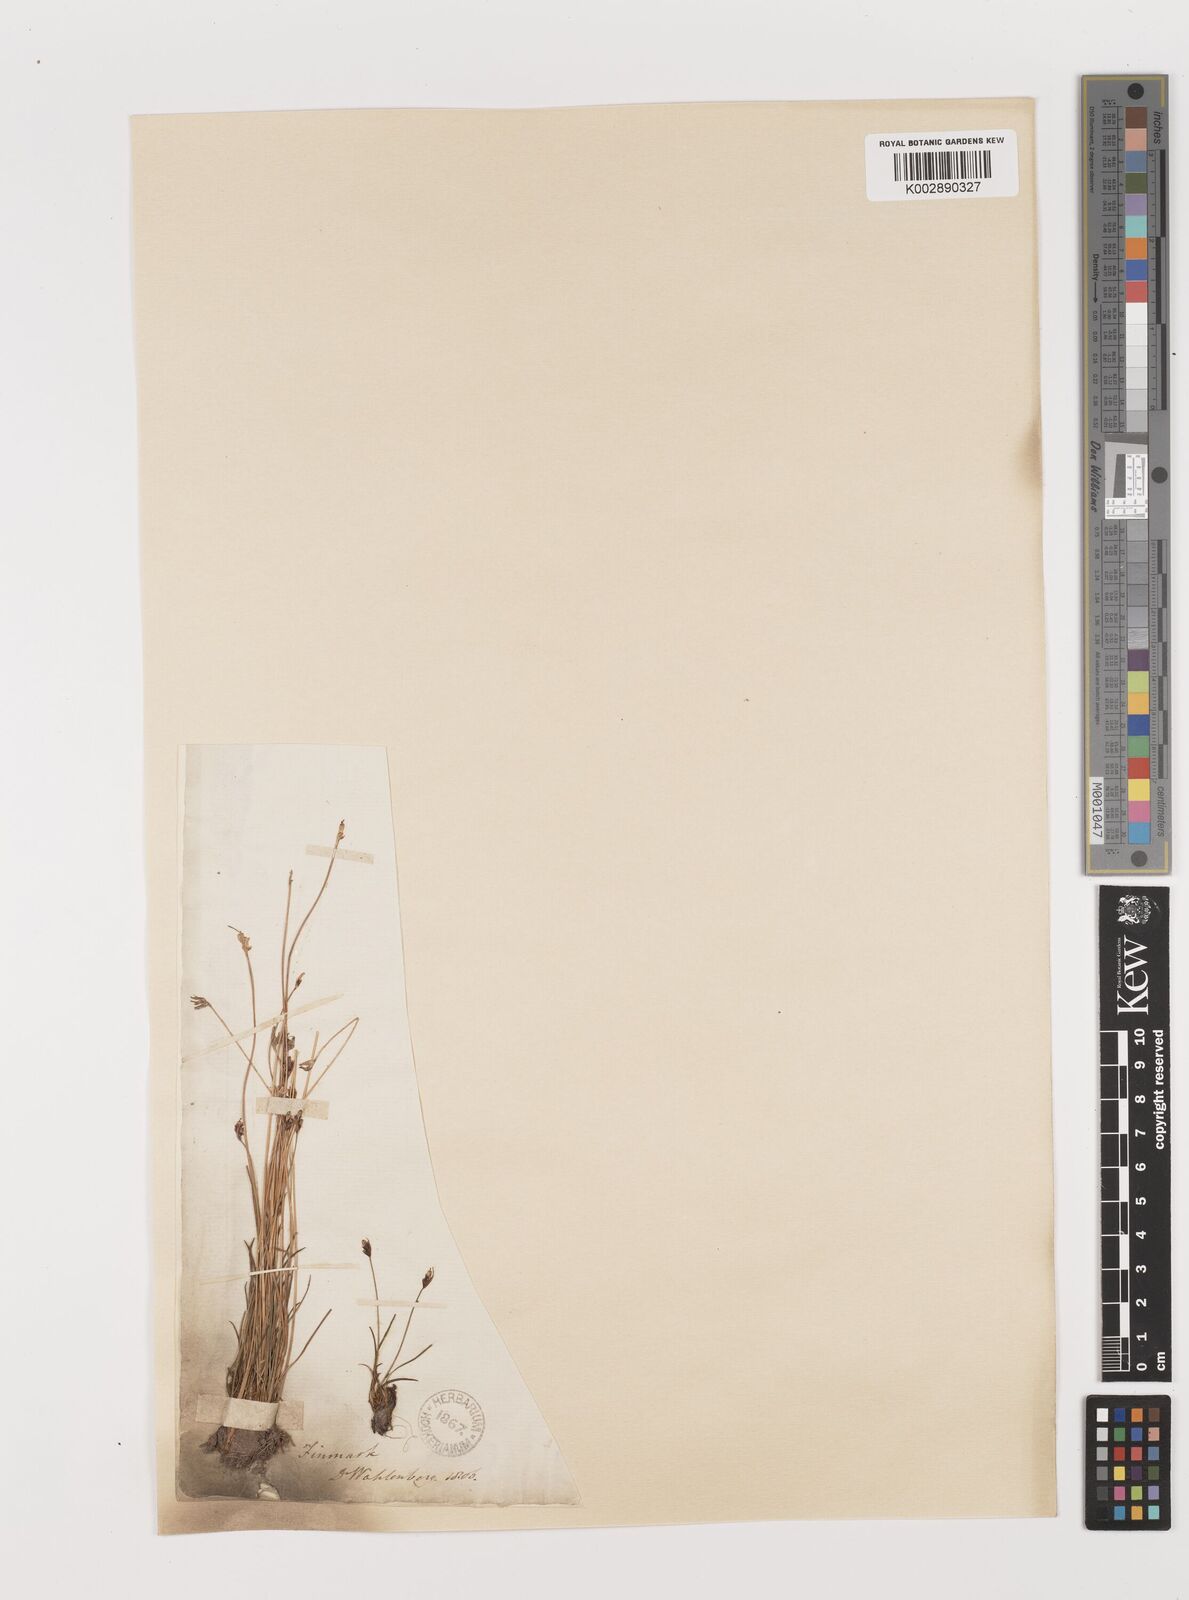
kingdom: Plantae
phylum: Tracheophyta
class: Liliopsida
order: Poales
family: Juncaceae
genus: Juncus
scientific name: Juncus biglumis
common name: Two-flowered rush
